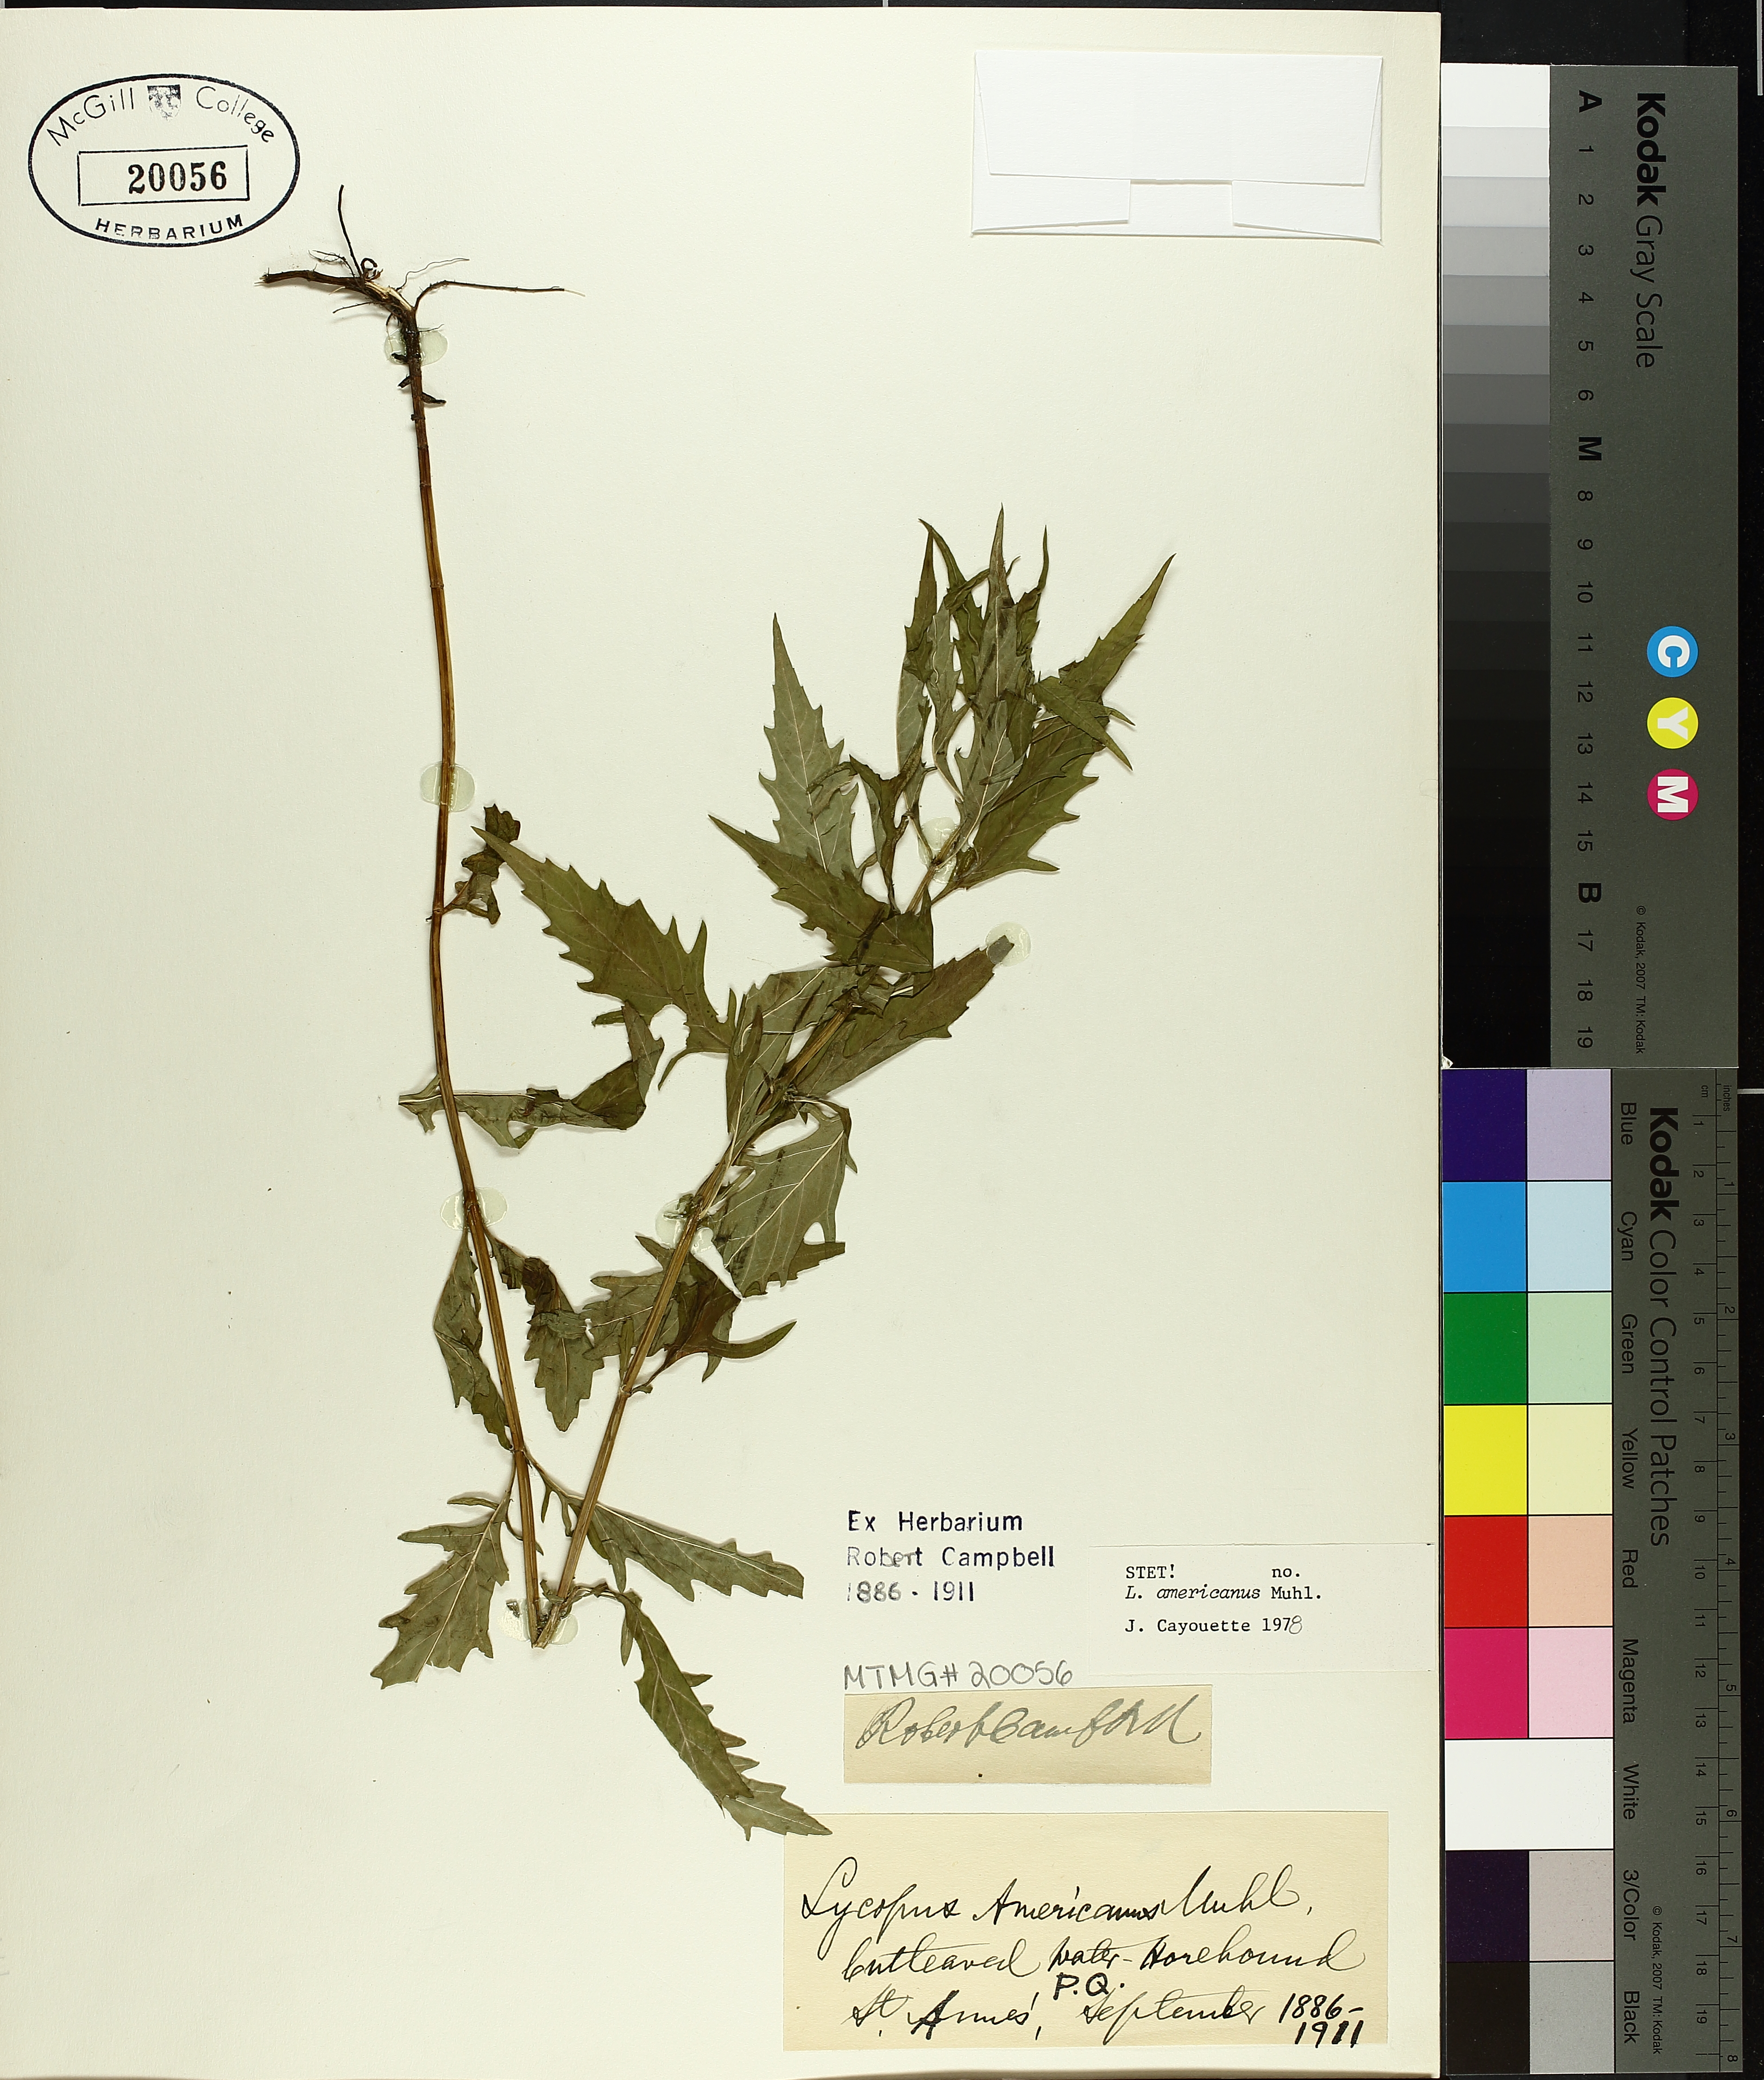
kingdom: Plantae
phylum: Tracheophyta
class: Magnoliopsida
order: Lamiales
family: Lamiaceae
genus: Lycopus
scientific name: Lycopus americanus
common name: American bugleweed
